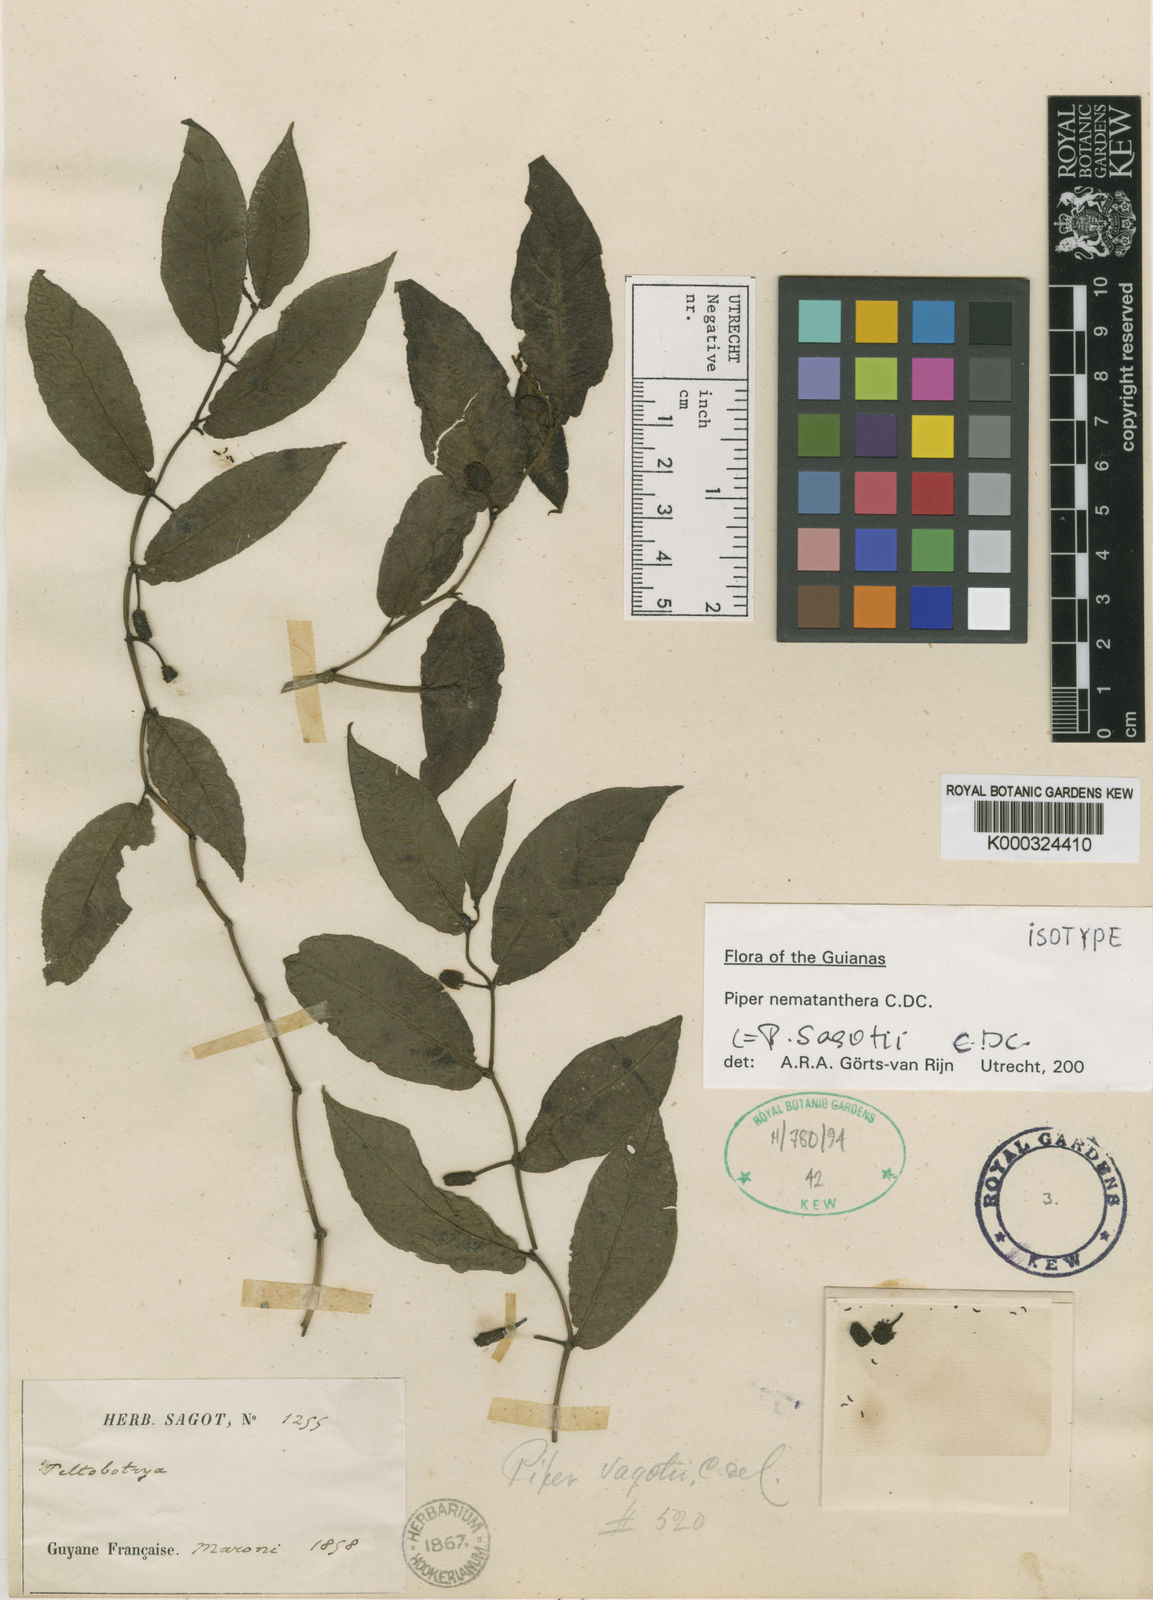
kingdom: Plantae
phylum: Tracheophyta
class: Magnoliopsida
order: Piperales
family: Piperaceae
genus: Piper
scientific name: Piper nematanthera
